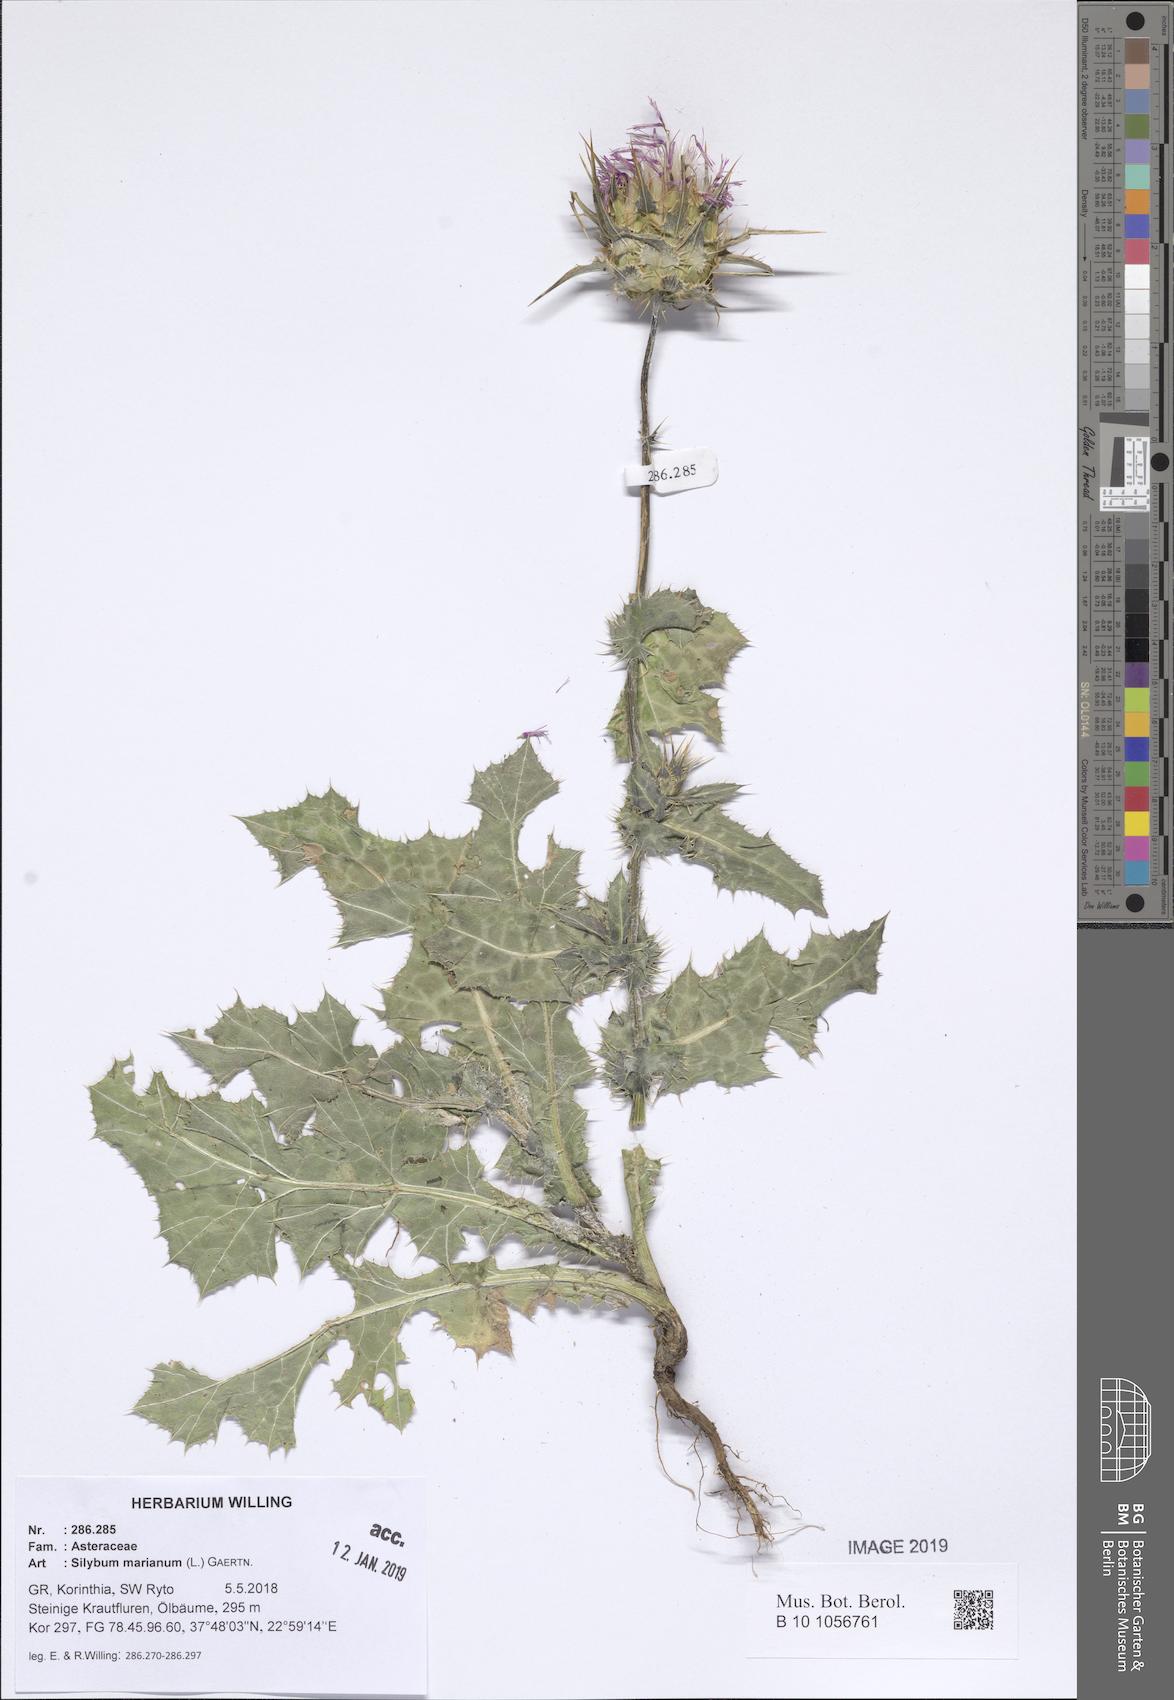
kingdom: Plantae
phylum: Tracheophyta
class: Magnoliopsida
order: Asterales
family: Asteraceae
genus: Silybum
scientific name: Silybum marianum
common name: Milk thistle
